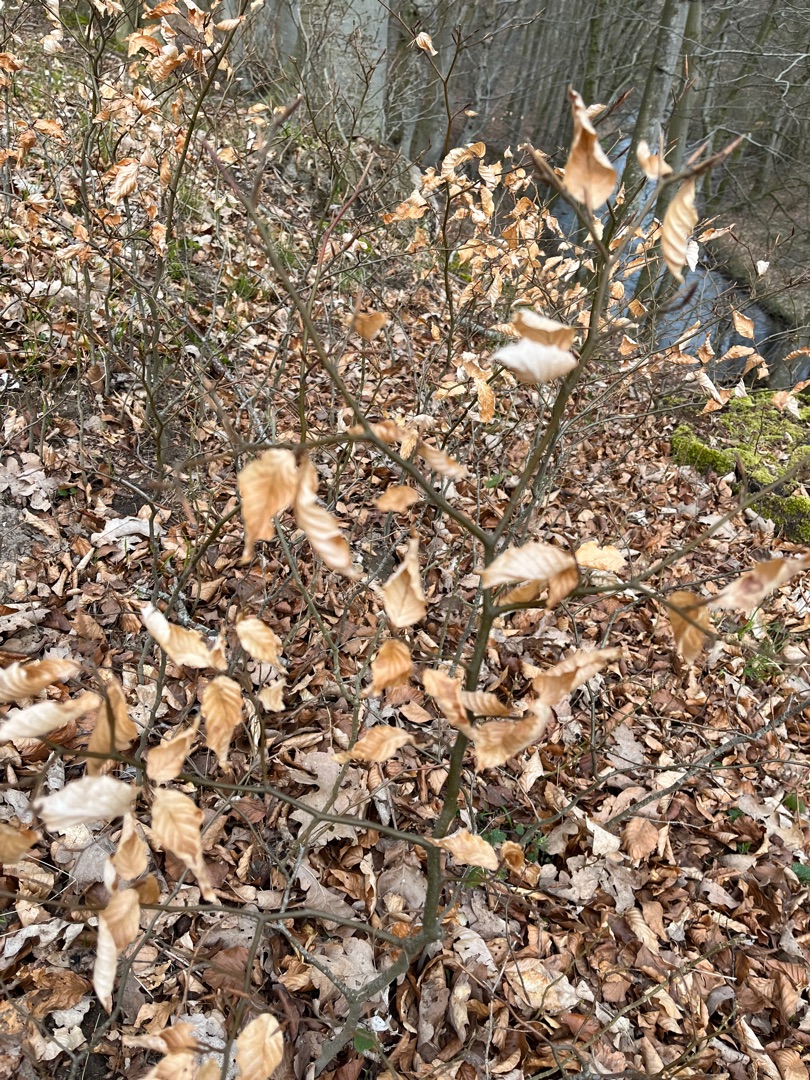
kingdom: Plantae
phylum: Tracheophyta
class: Magnoliopsida
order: Fagales
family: Fagaceae
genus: Fagus
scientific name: Fagus sylvatica
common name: Bøg
